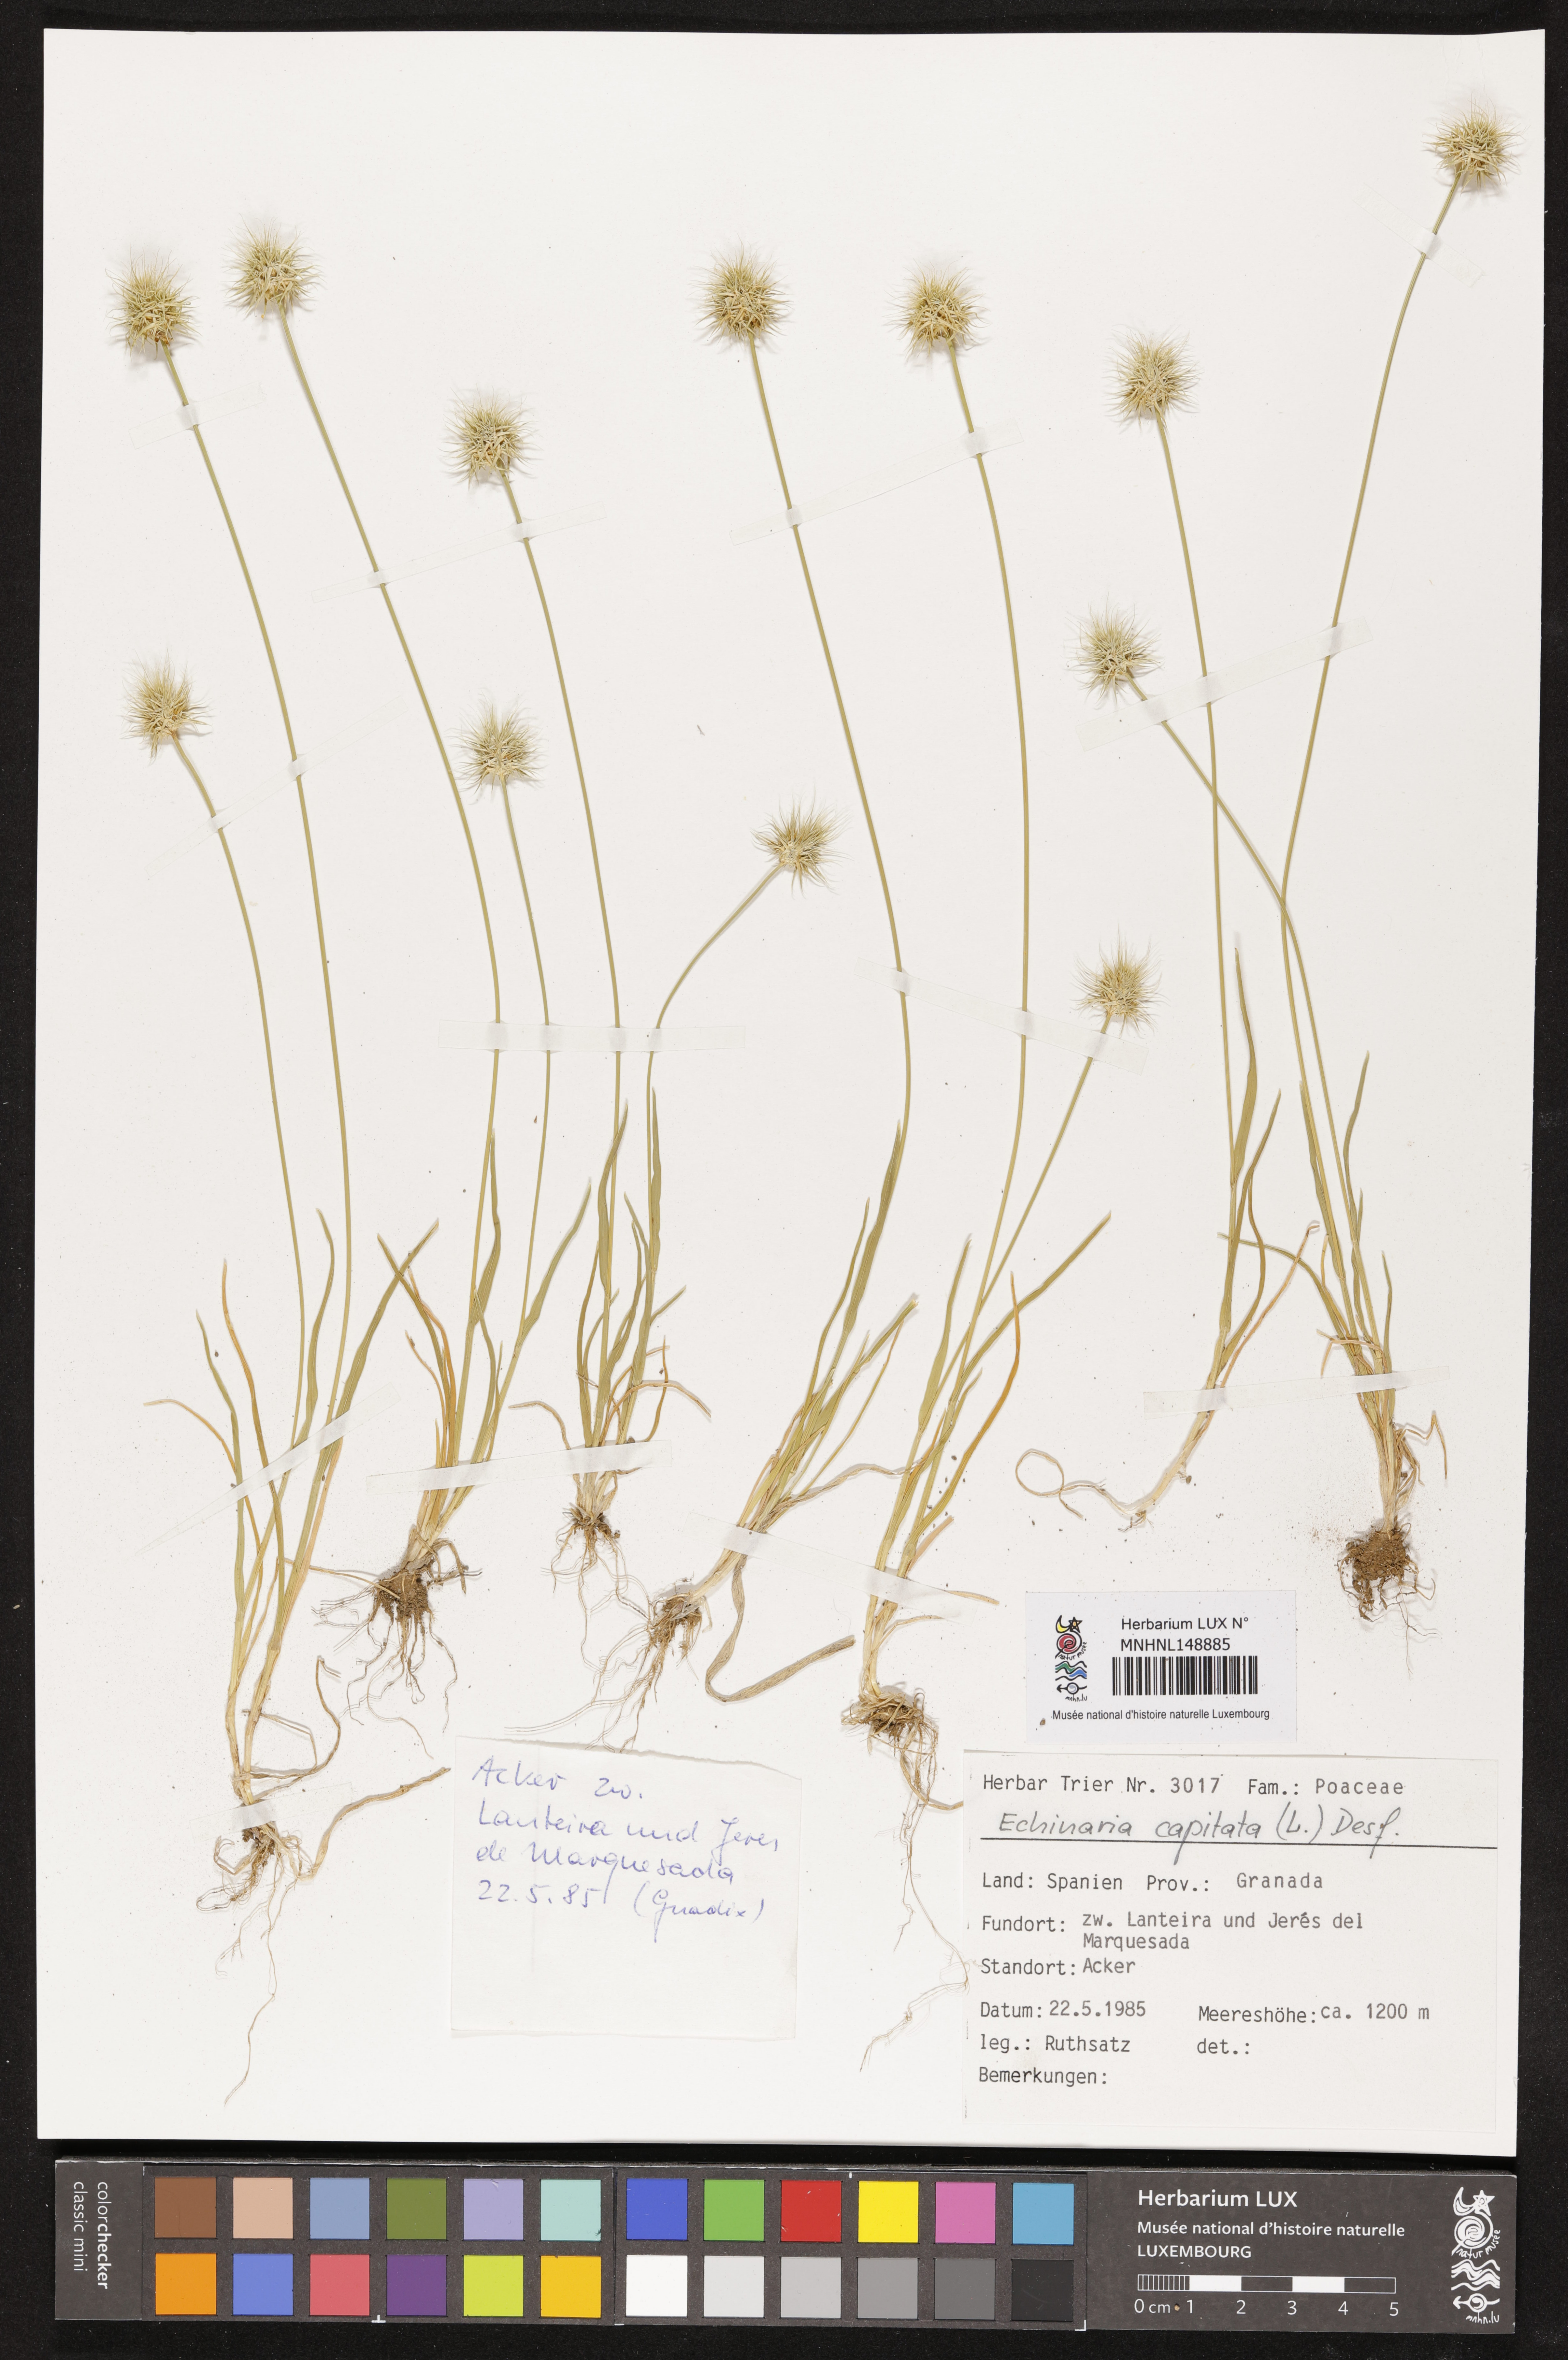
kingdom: Plantae
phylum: Tracheophyta
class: Liliopsida
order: Poales
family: Poaceae
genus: Echinaria
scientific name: Echinaria capitata
